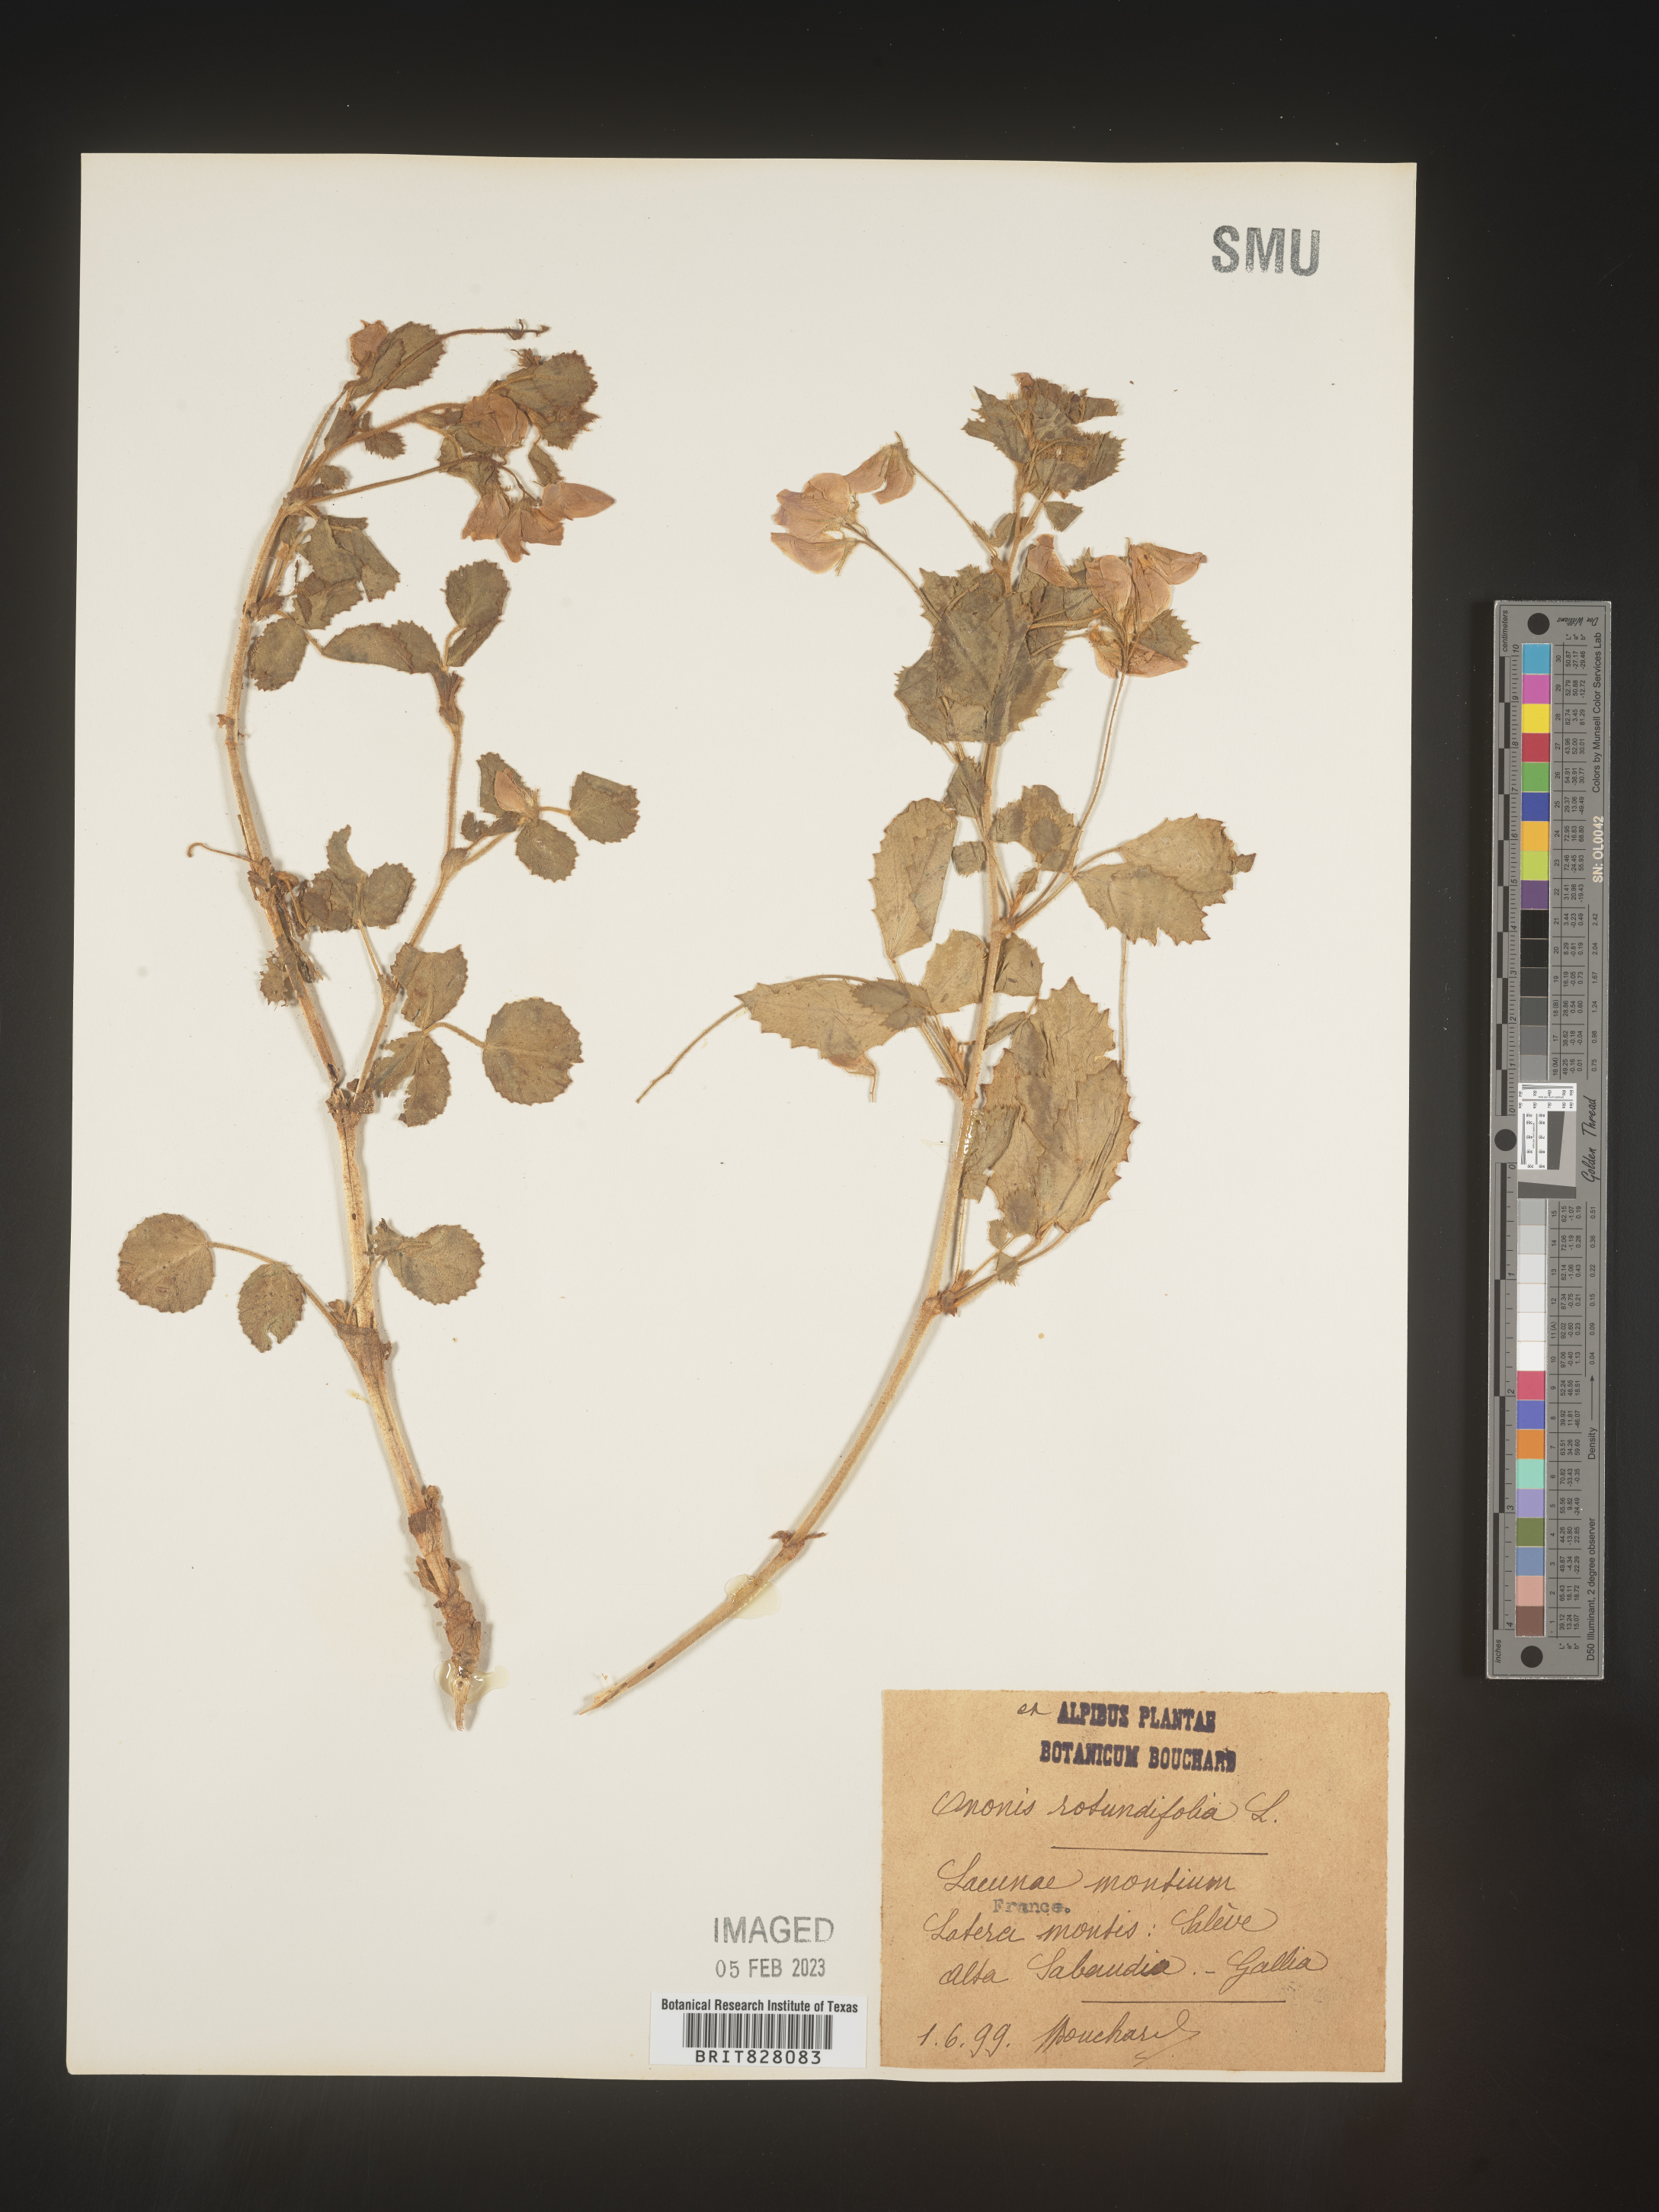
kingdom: Plantae
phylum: Tracheophyta
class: Magnoliopsida
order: Fabales
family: Fabaceae
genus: Ononis
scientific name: Ononis
